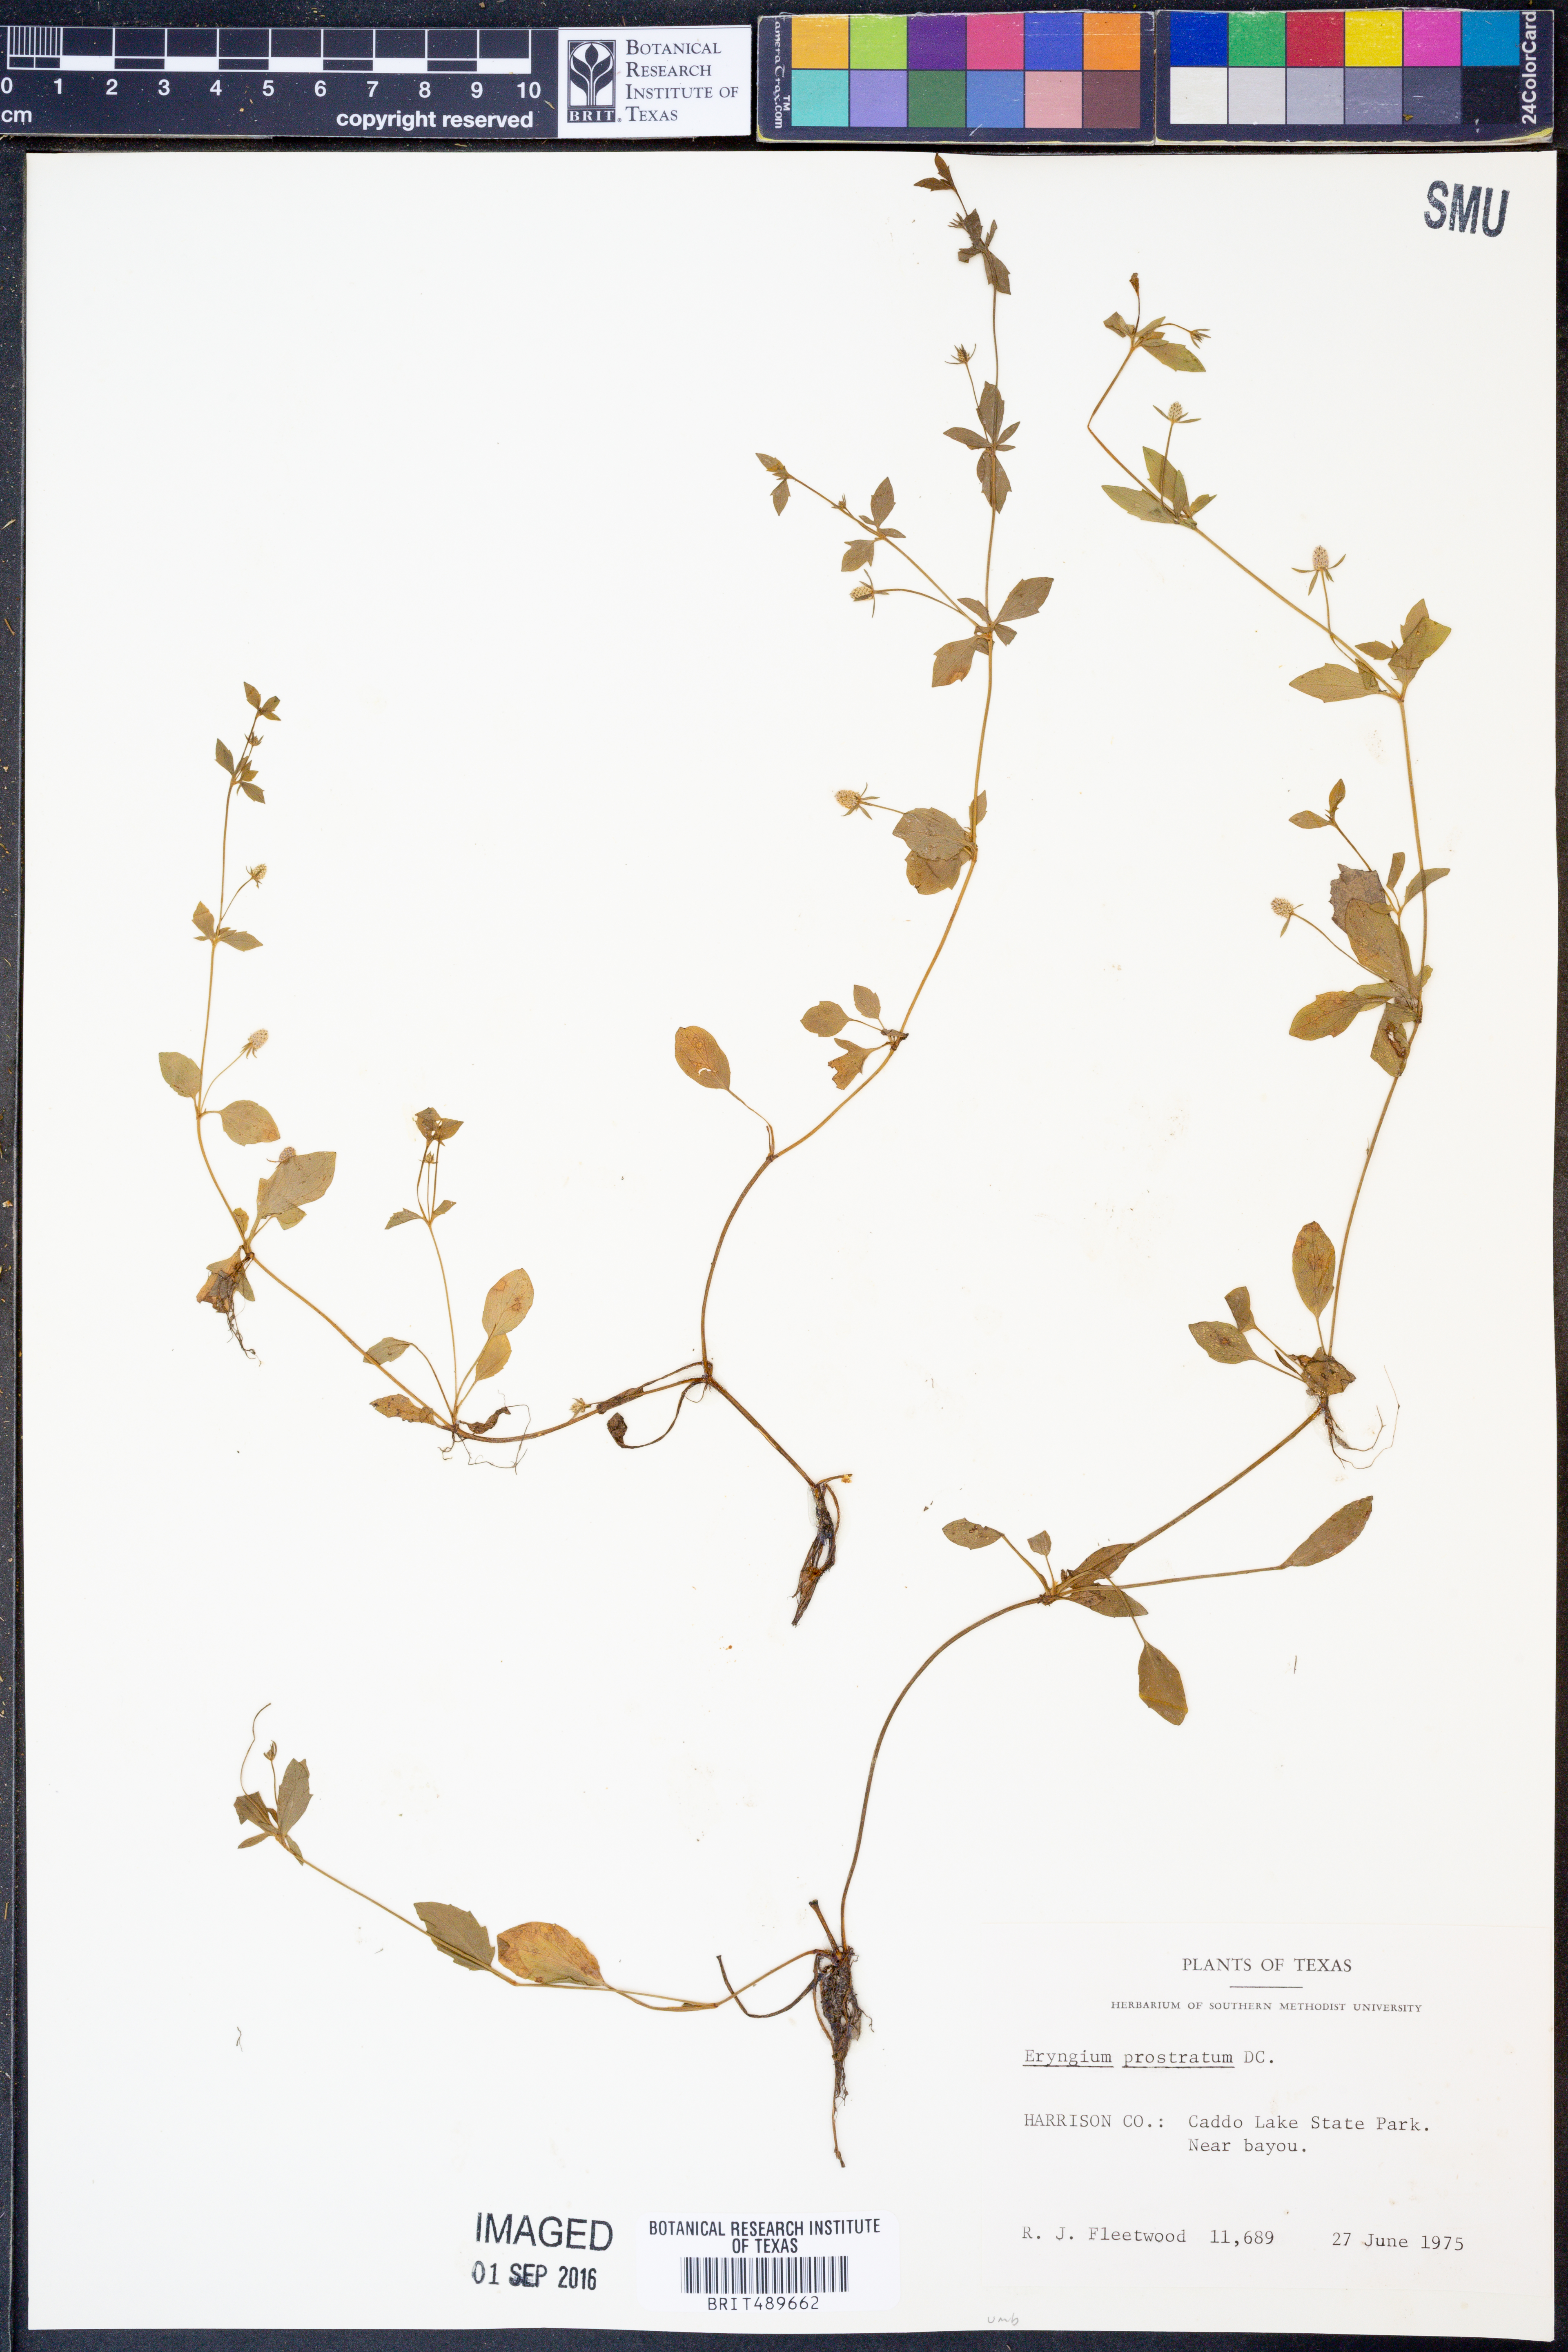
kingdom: Plantae
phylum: Tracheophyta
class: Magnoliopsida
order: Apiales
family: Apiaceae
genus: Eryngium
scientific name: Eryngium prostratum
